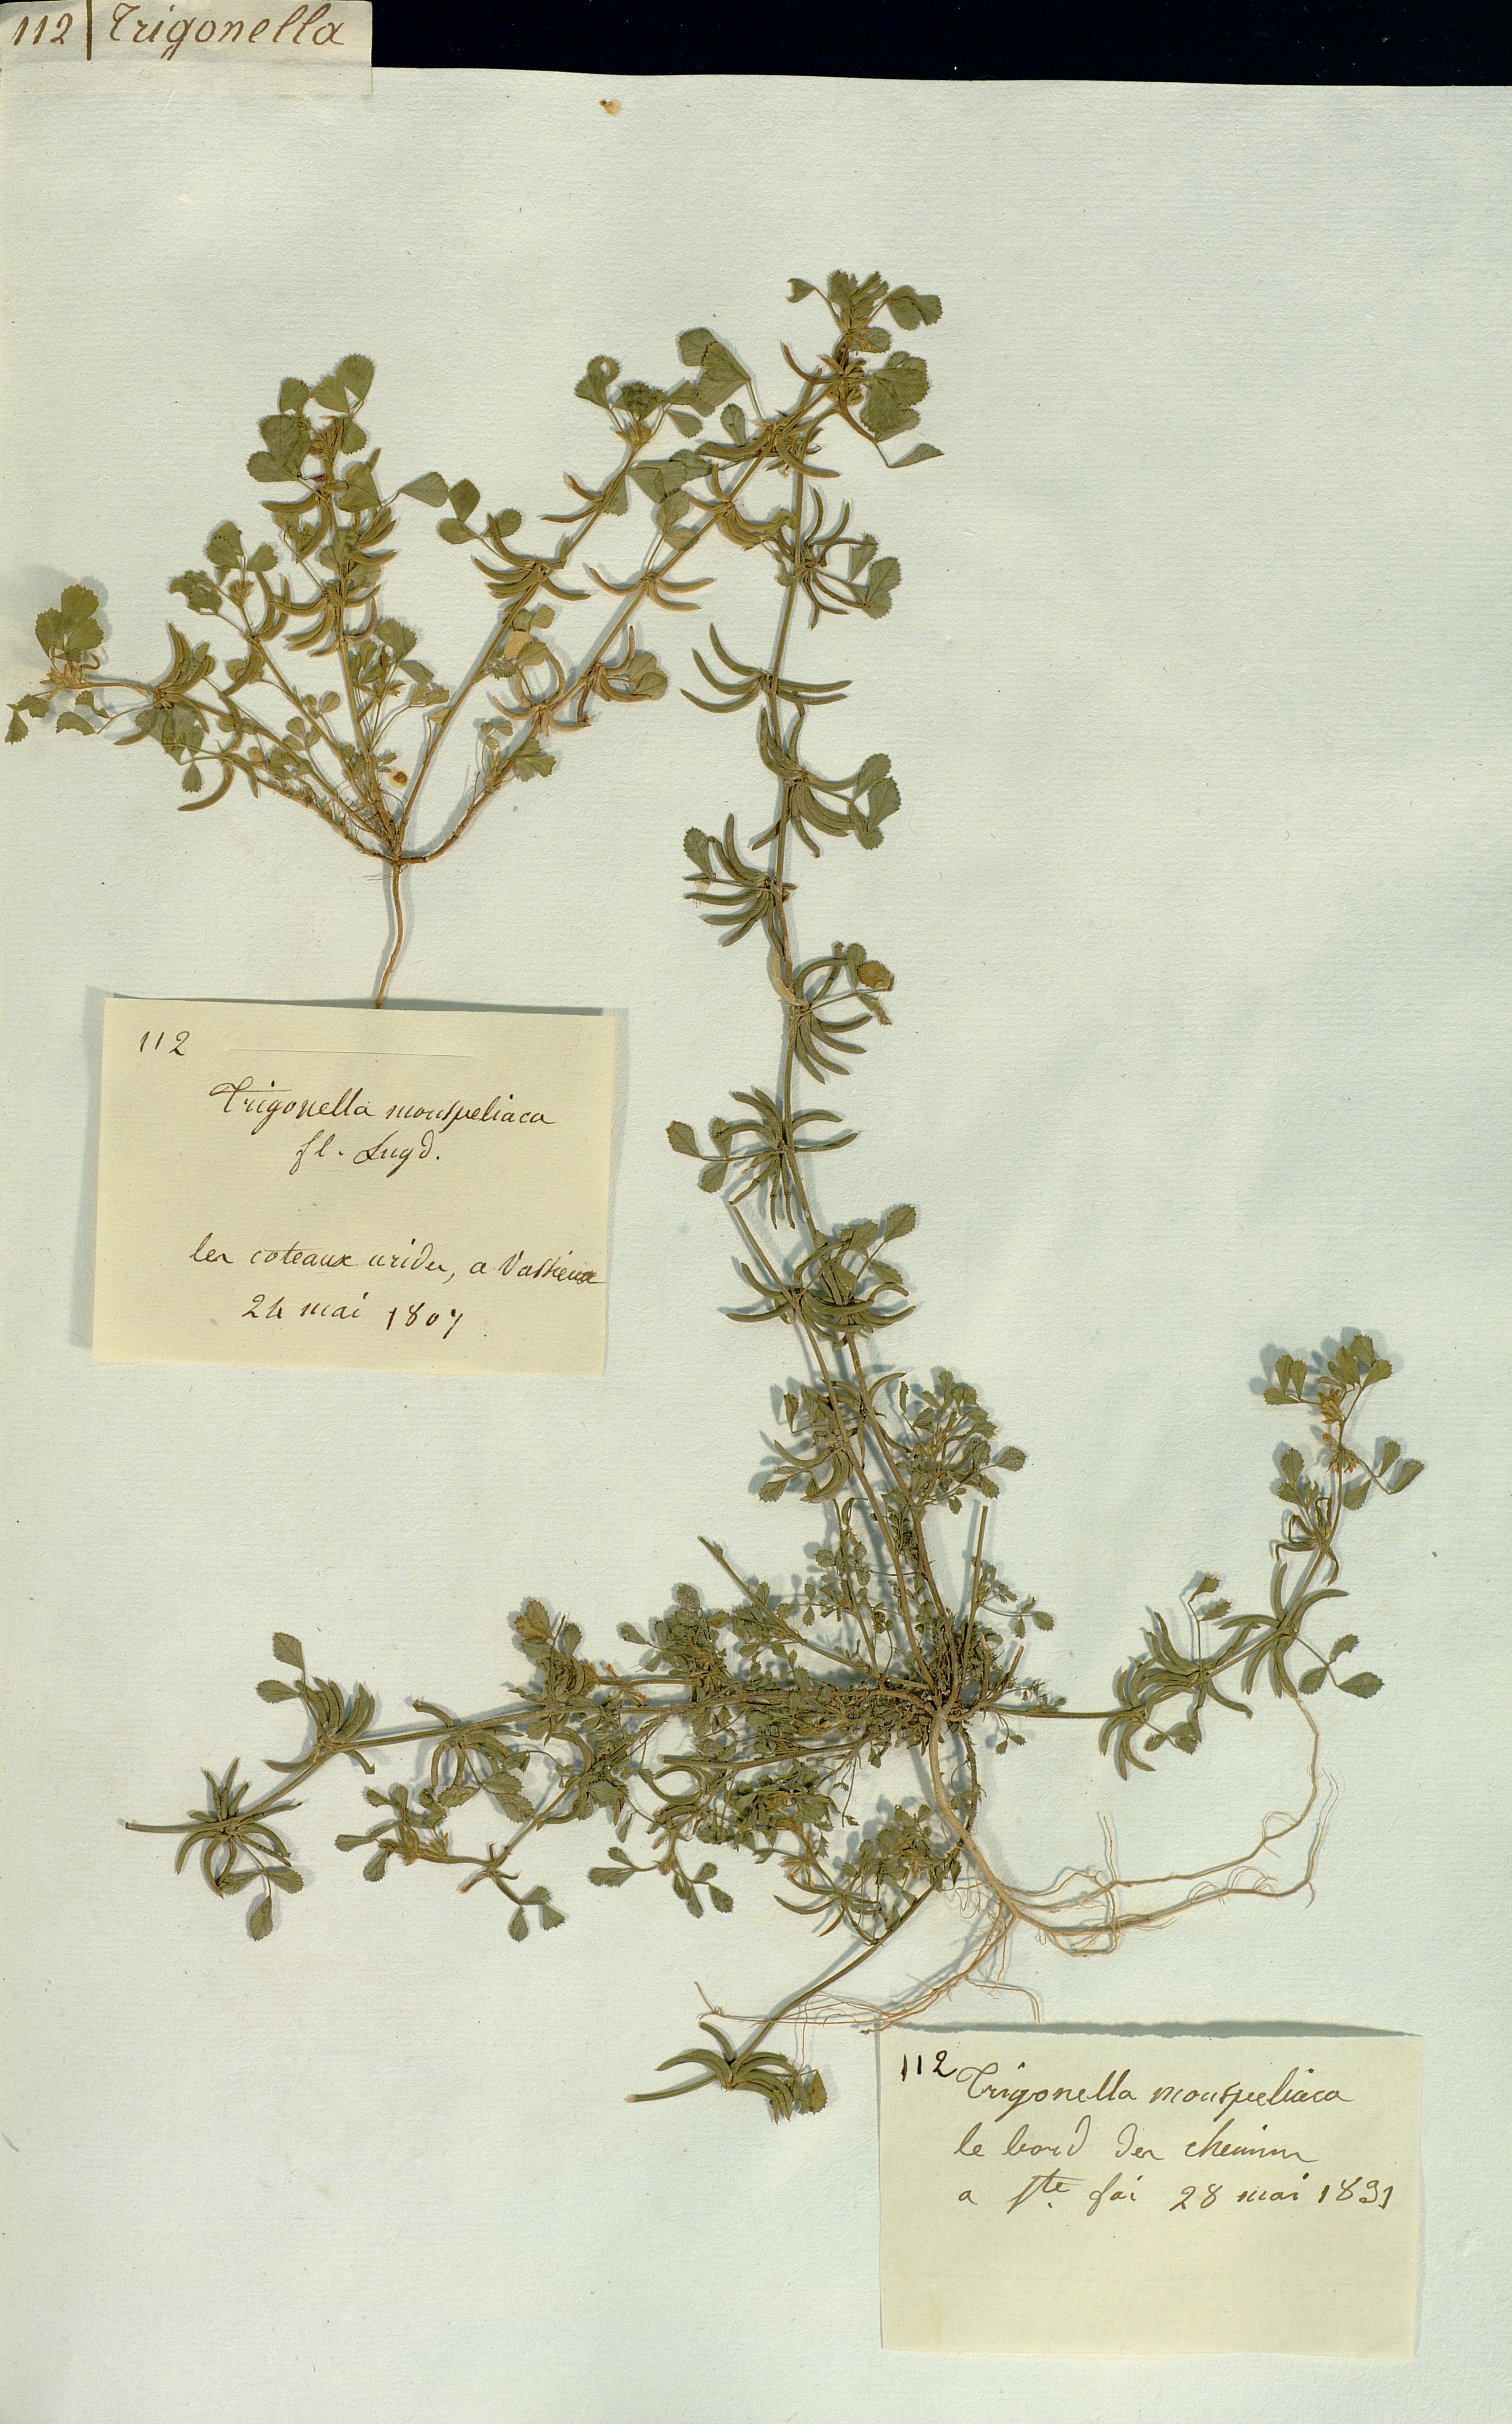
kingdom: Plantae
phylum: Tracheophyta
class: Magnoliopsida
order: Fabales
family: Fabaceae
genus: Medicago
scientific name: Medicago monspeliaca
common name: Hairy medick
